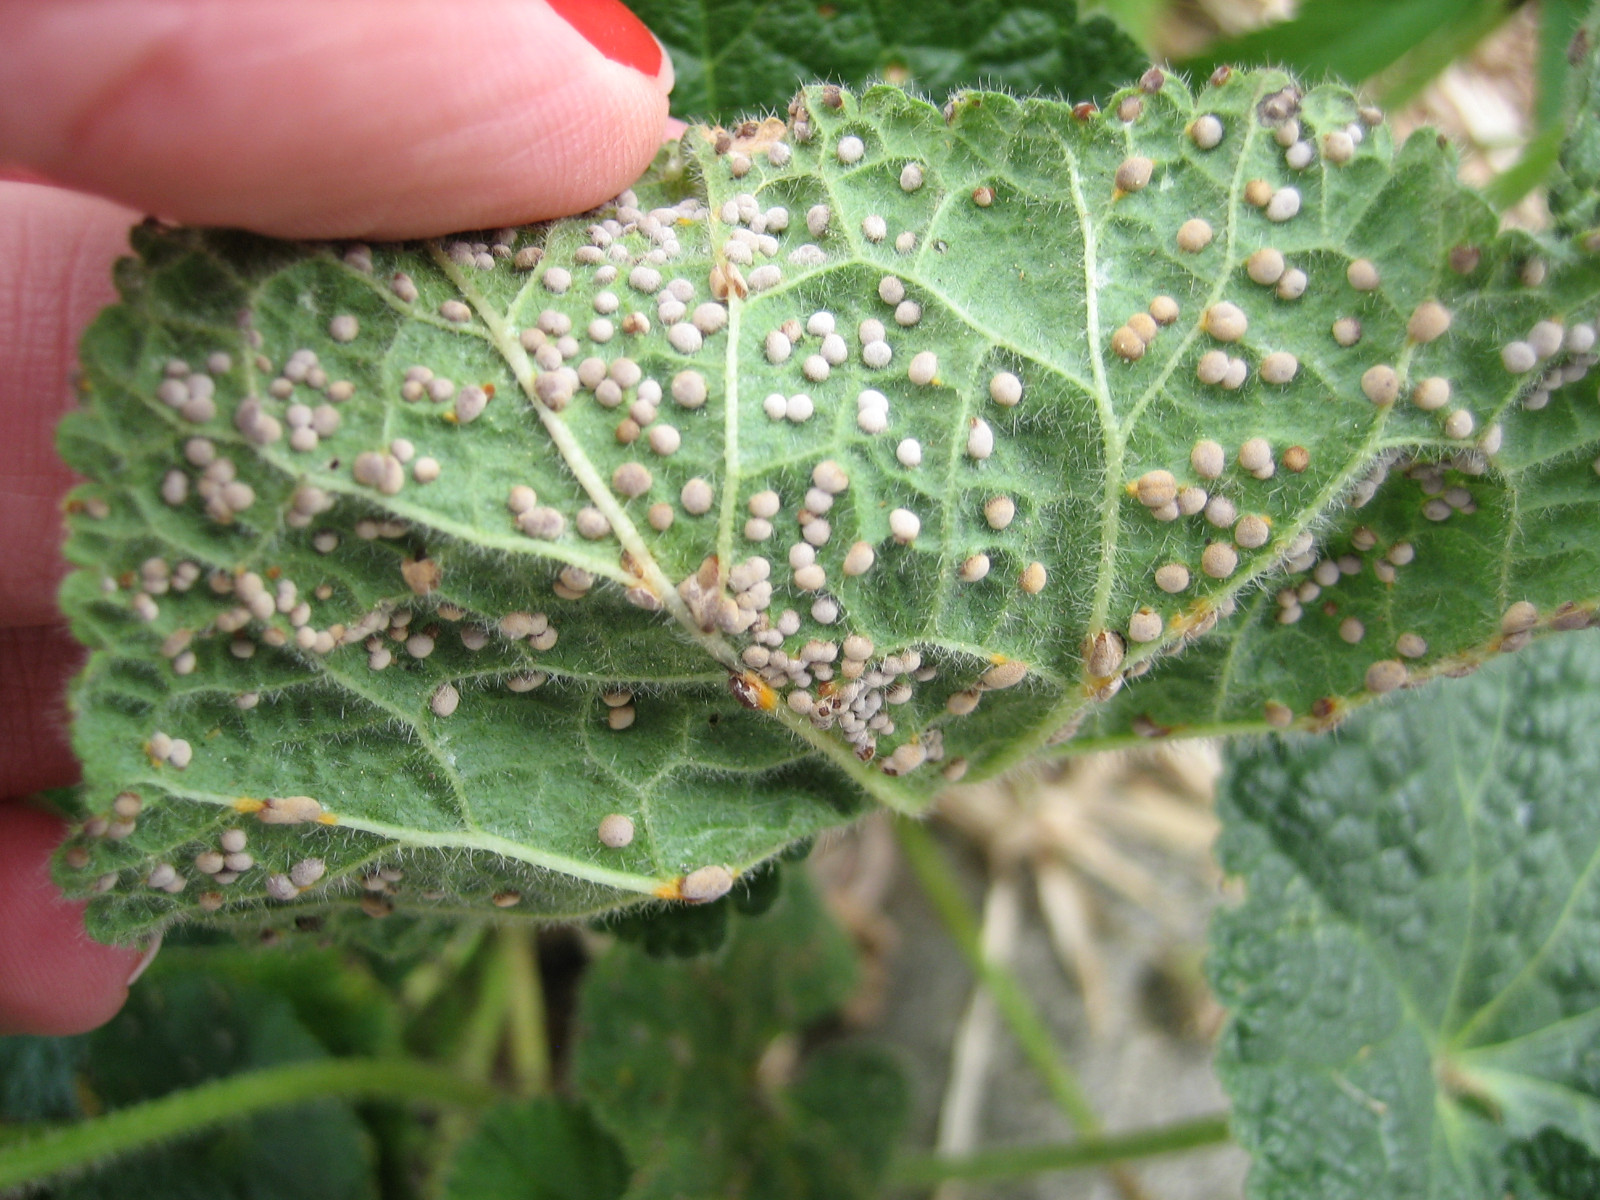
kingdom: Fungi
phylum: Basidiomycota
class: Pucciniomycetes
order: Pucciniales
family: Pucciniaceae
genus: Puccinia
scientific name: Puccinia malvacearum
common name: stokrose-tvecellerust
